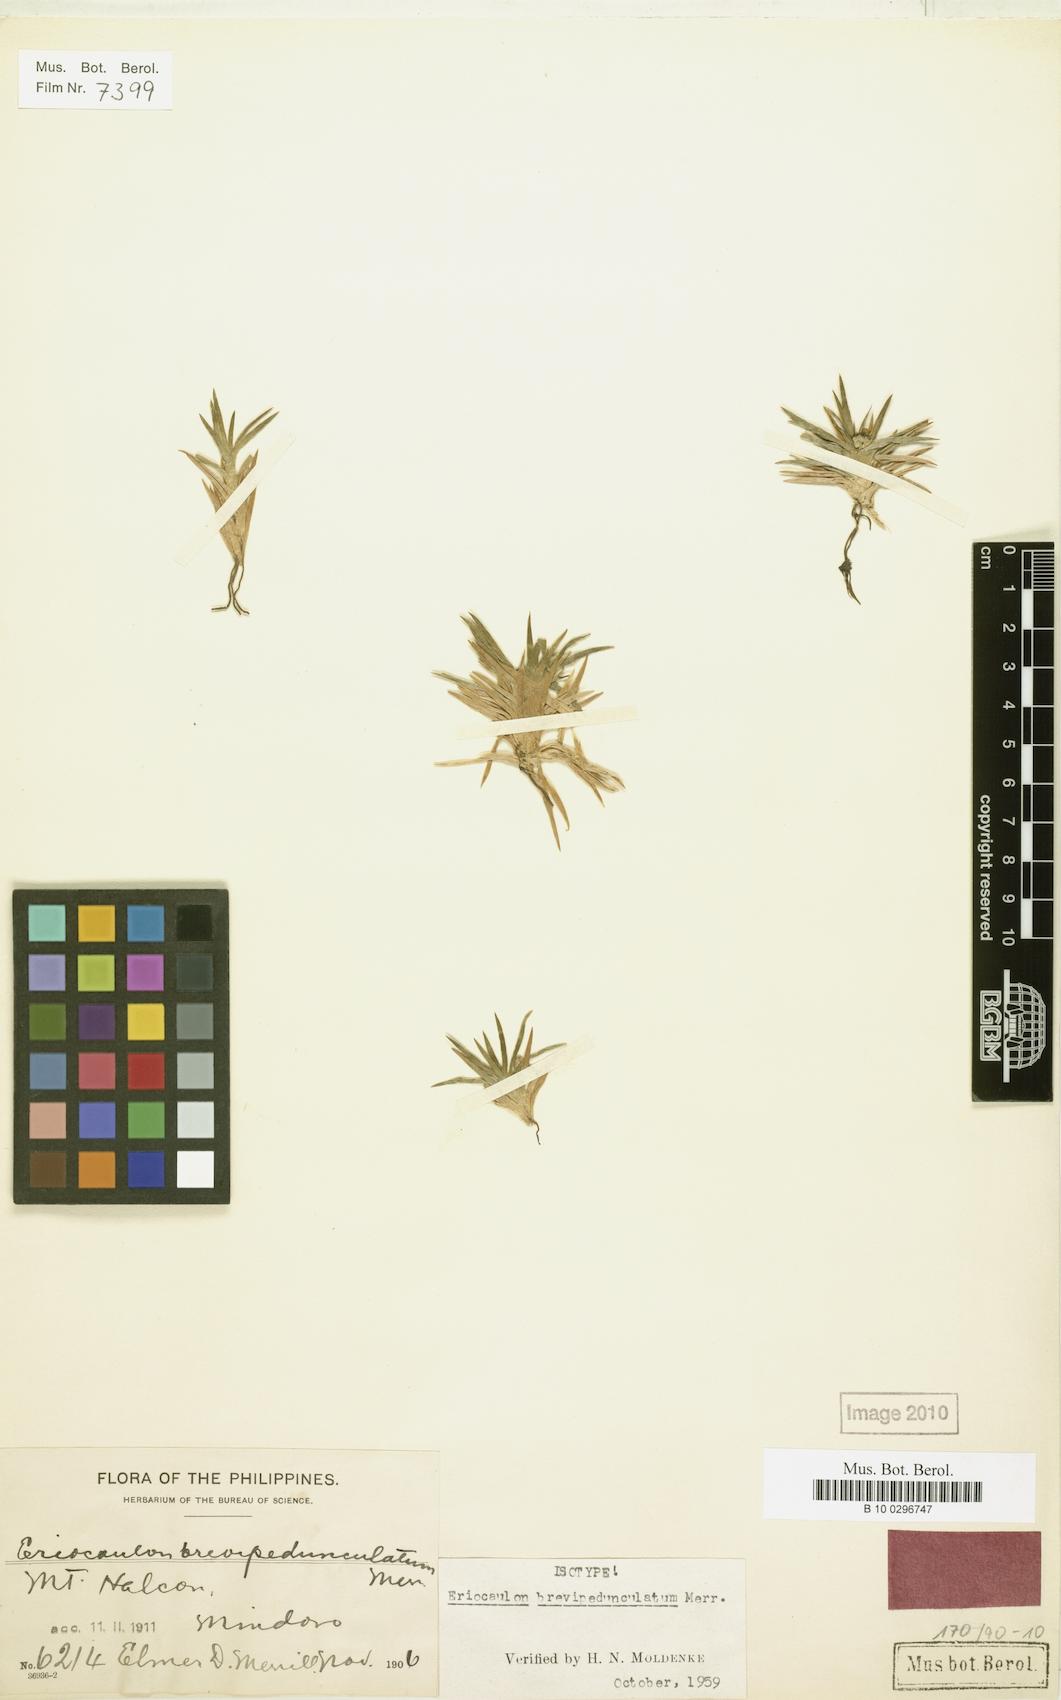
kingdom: Plantae
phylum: Tracheophyta
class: Liliopsida
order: Poales
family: Eriocaulaceae
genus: Eriocaulon
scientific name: Eriocaulon brevipedunculatum
